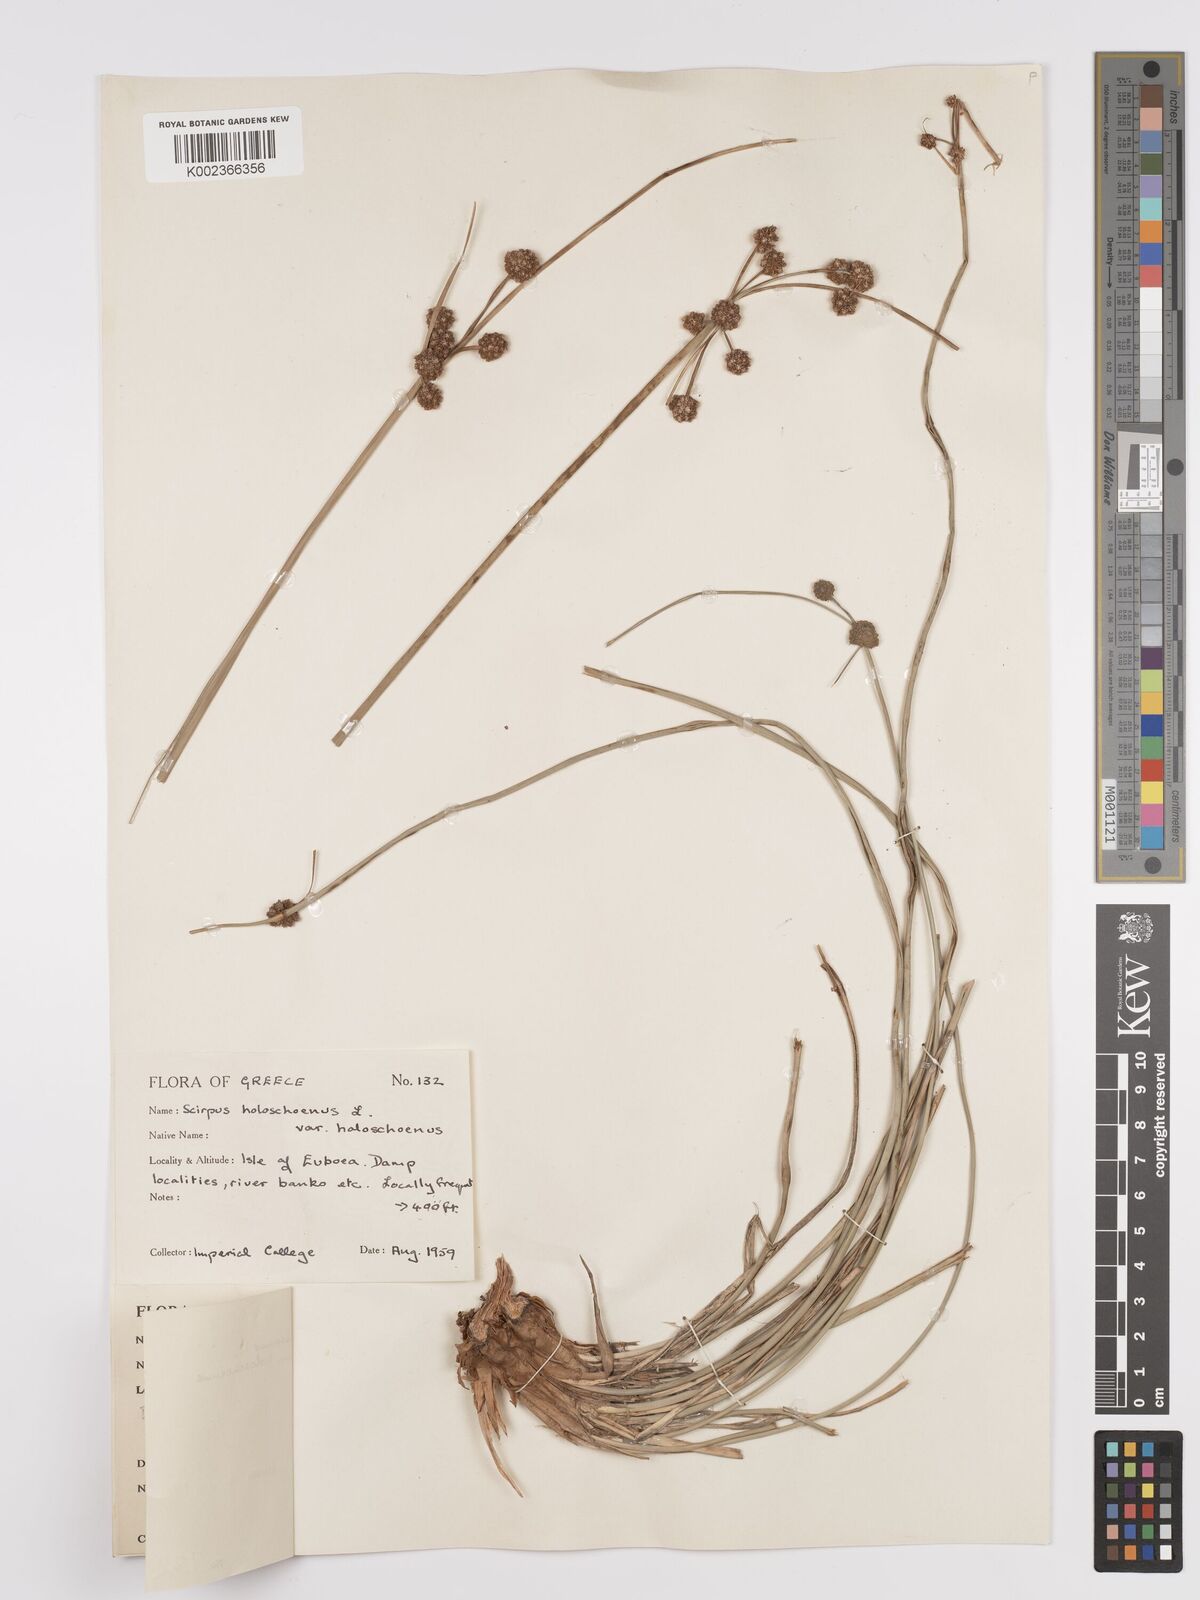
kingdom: Plantae
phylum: Tracheophyta
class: Liliopsida
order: Poales
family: Cyperaceae
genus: Scirpoides
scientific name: Scirpoides holoschoenus
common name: Round-headed club-rush
